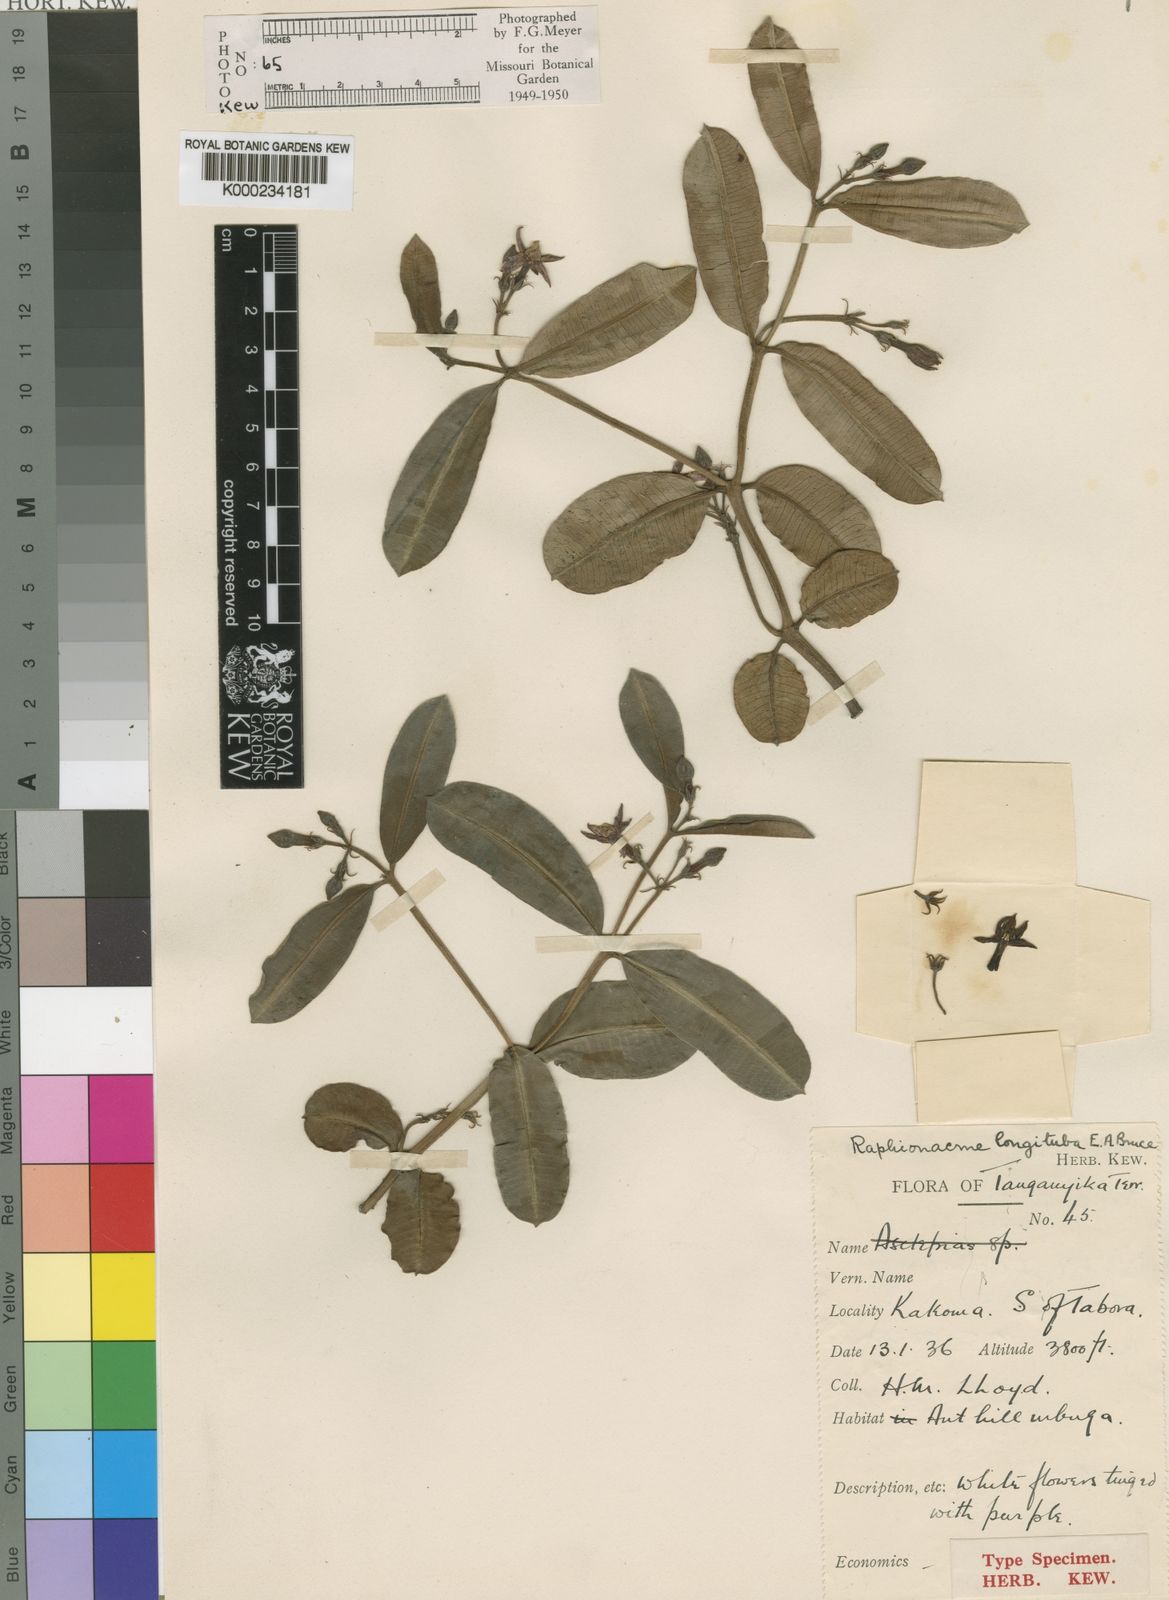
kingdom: Plantae
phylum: Tracheophyta
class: Magnoliopsida
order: Gentianales
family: Apocynaceae
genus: Raphionacme
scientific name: Raphionacme longituba
